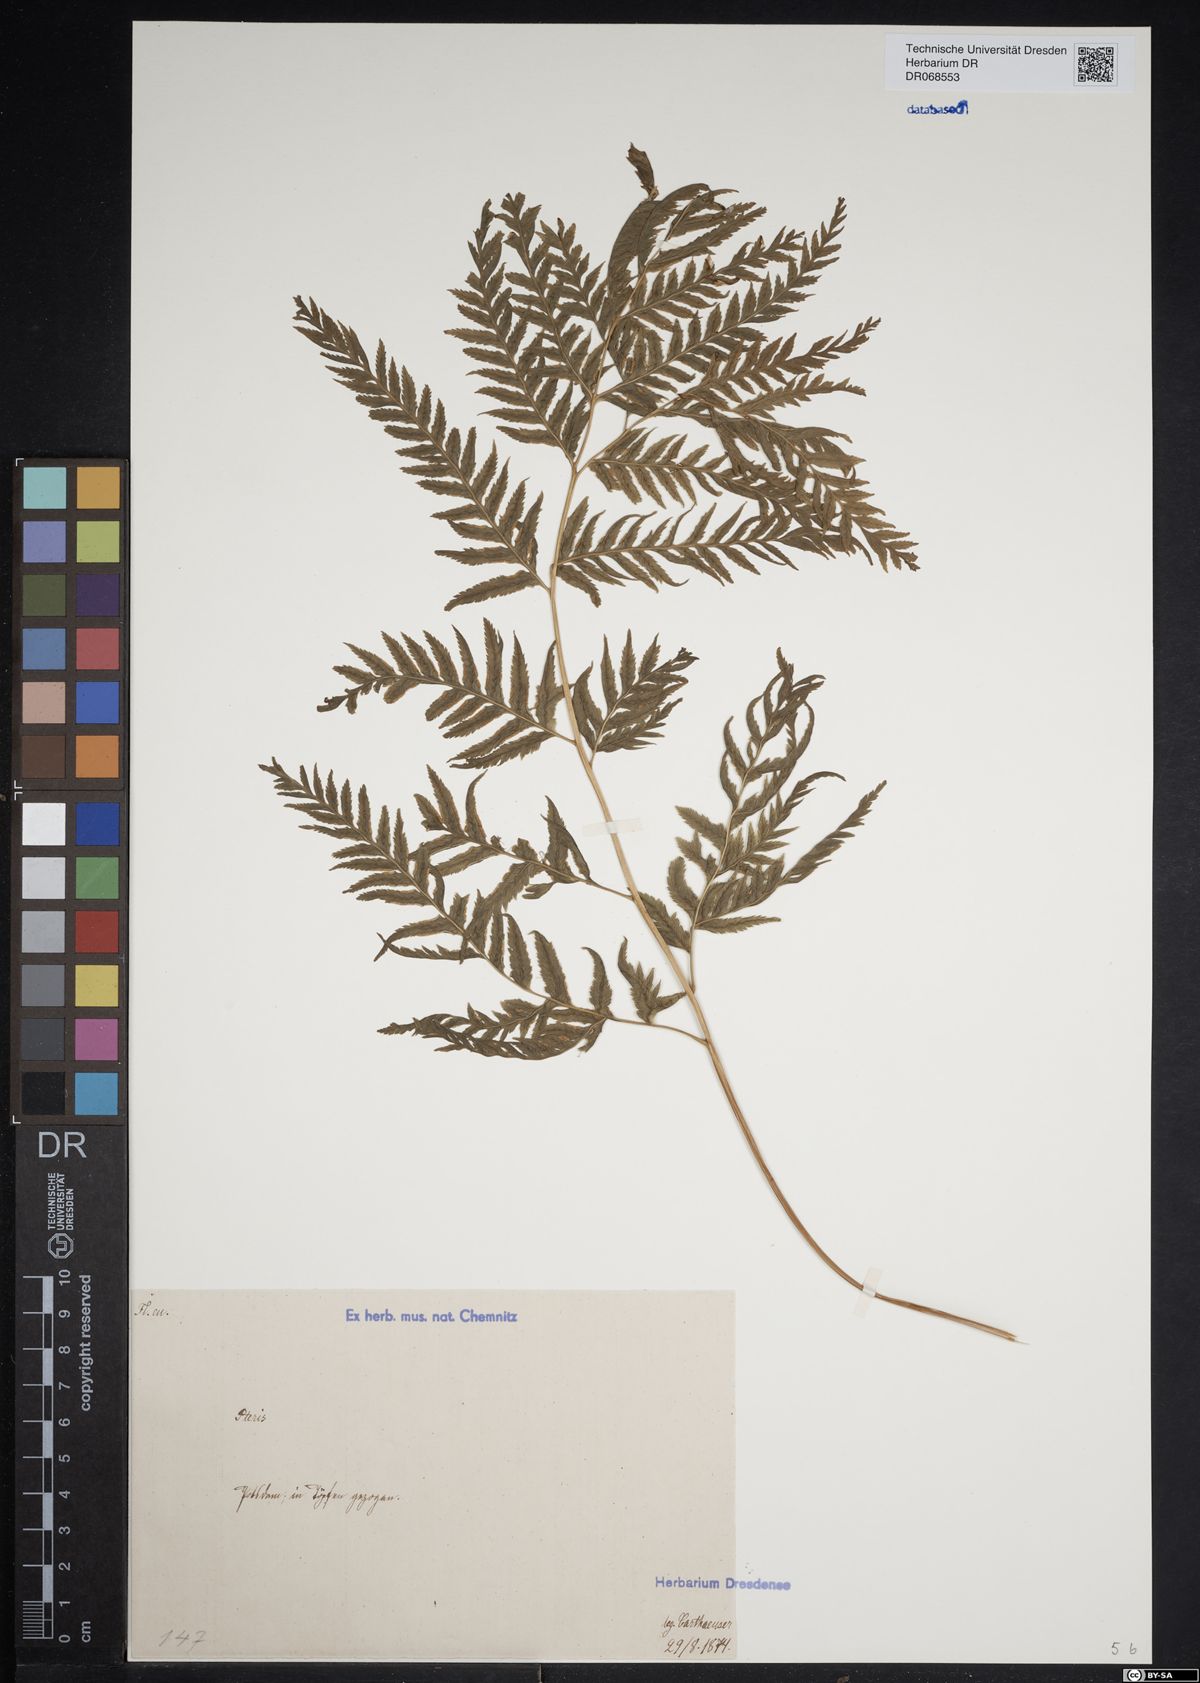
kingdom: Plantae
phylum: Tracheophyta
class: Polypodiopsida
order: Polypodiales
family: Pteridaceae
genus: Pteris
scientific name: Pteris
